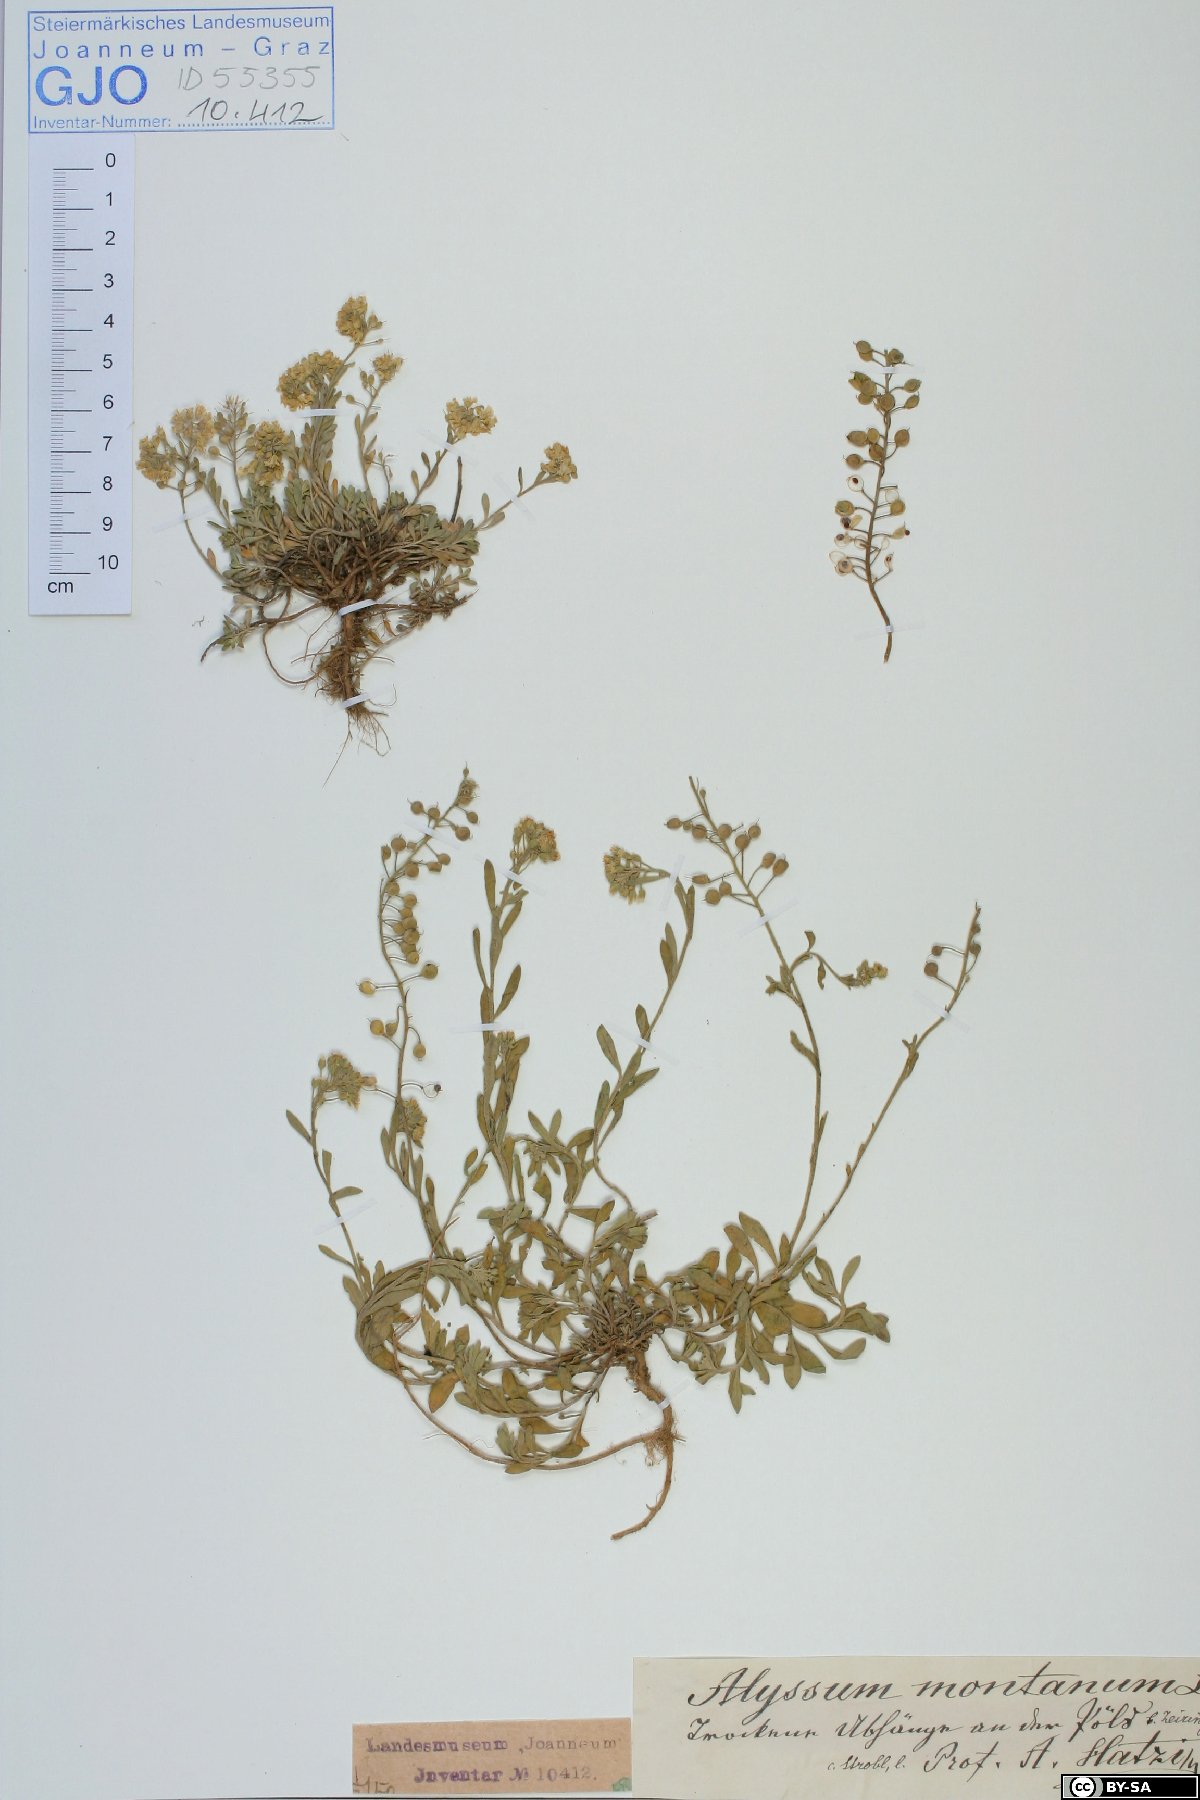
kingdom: Plantae
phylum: Tracheophyta
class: Magnoliopsida
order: Brassicales
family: Brassicaceae
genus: Alyssum
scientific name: Alyssum montanum
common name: Mountain alison
